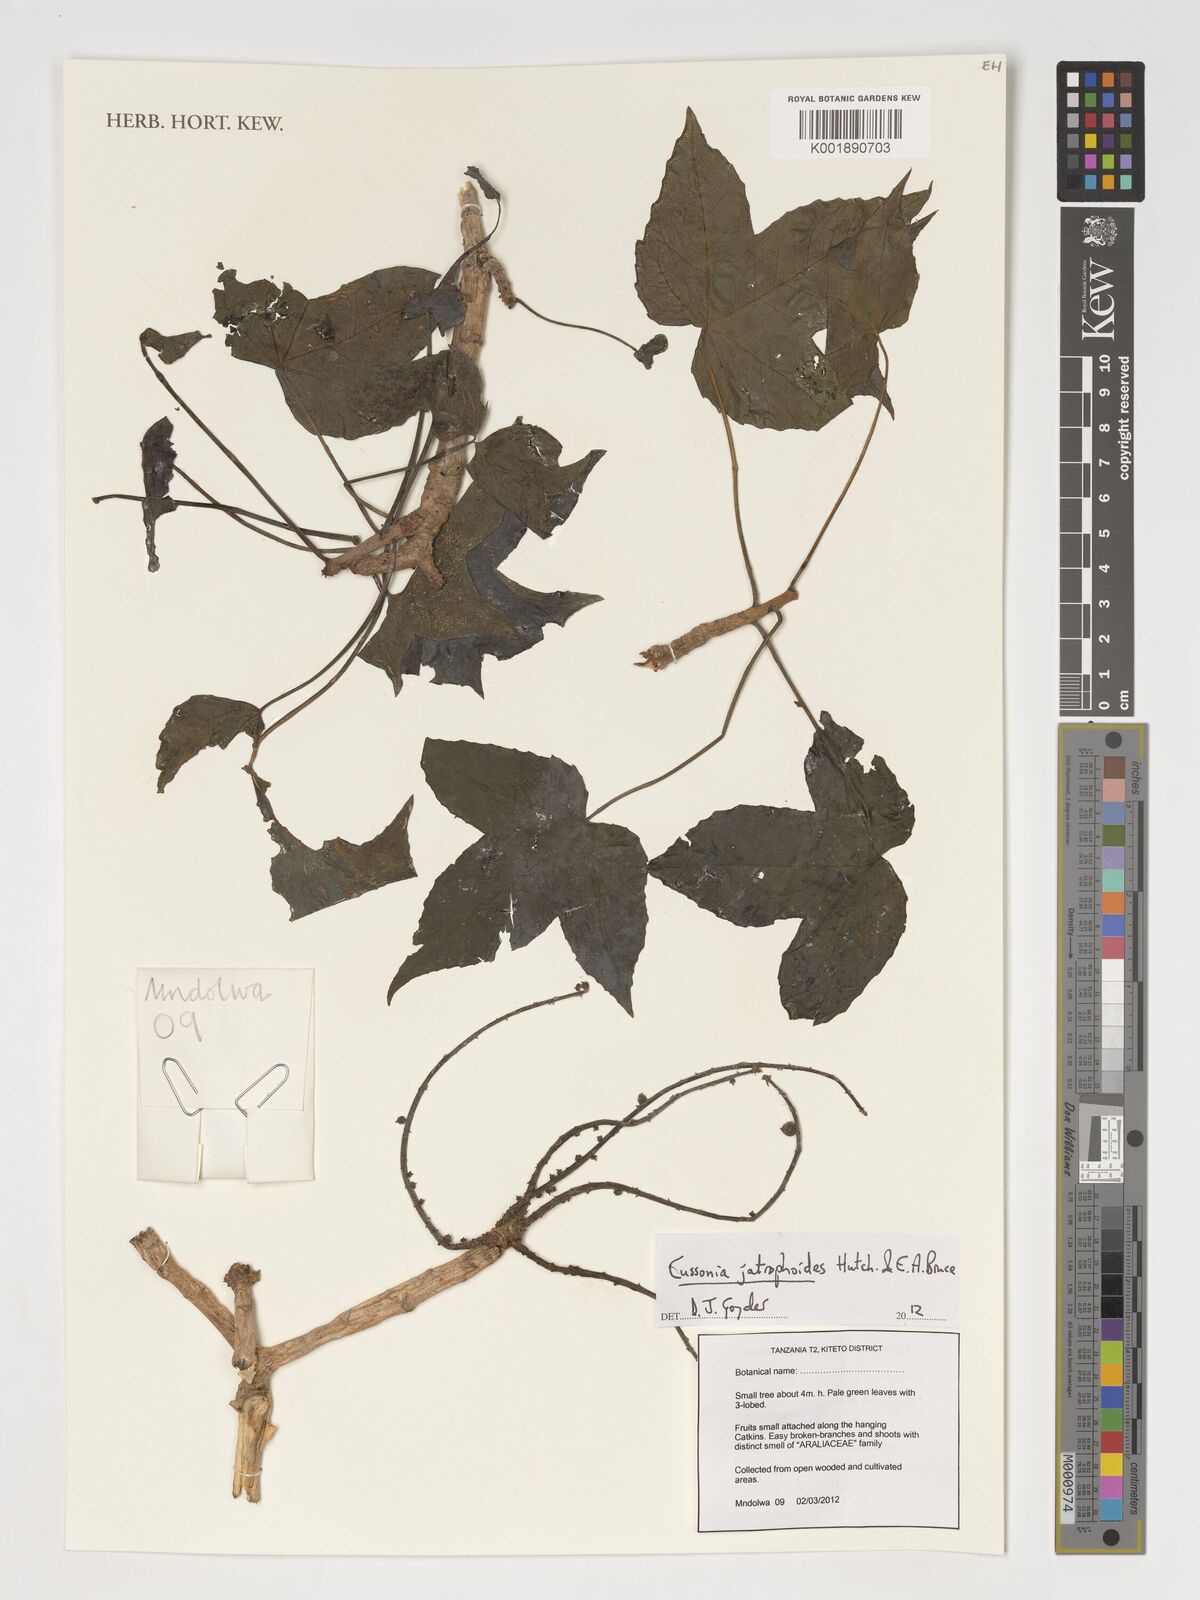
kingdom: Plantae
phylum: Tracheophyta
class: Magnoliopsida
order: Apiales
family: Araliaceae
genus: Cussonia
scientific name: Cussonia jatrophoides
